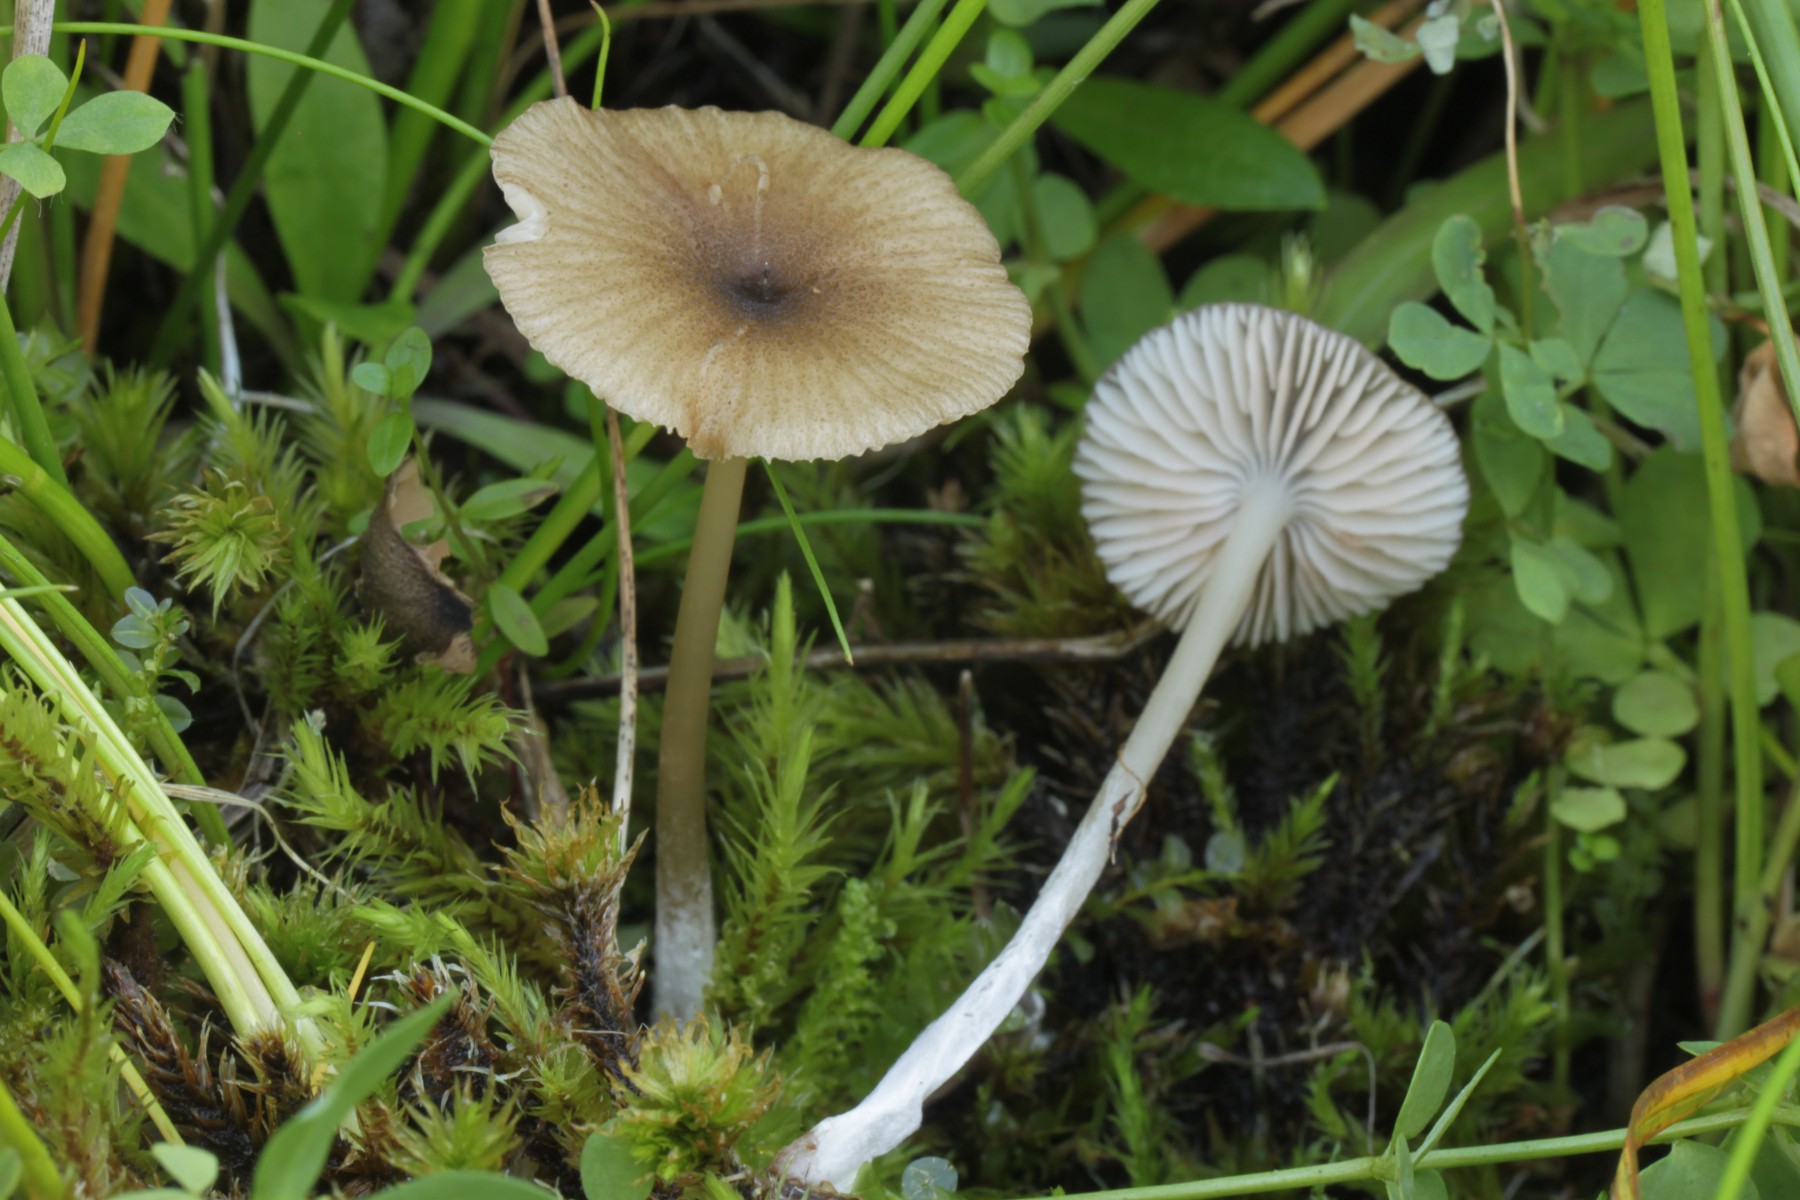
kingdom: Fungi
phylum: Basidiomycota
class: Agaricomycetes
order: Agaricales
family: Entolomataceae
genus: Entoloma
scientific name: Entoloma
